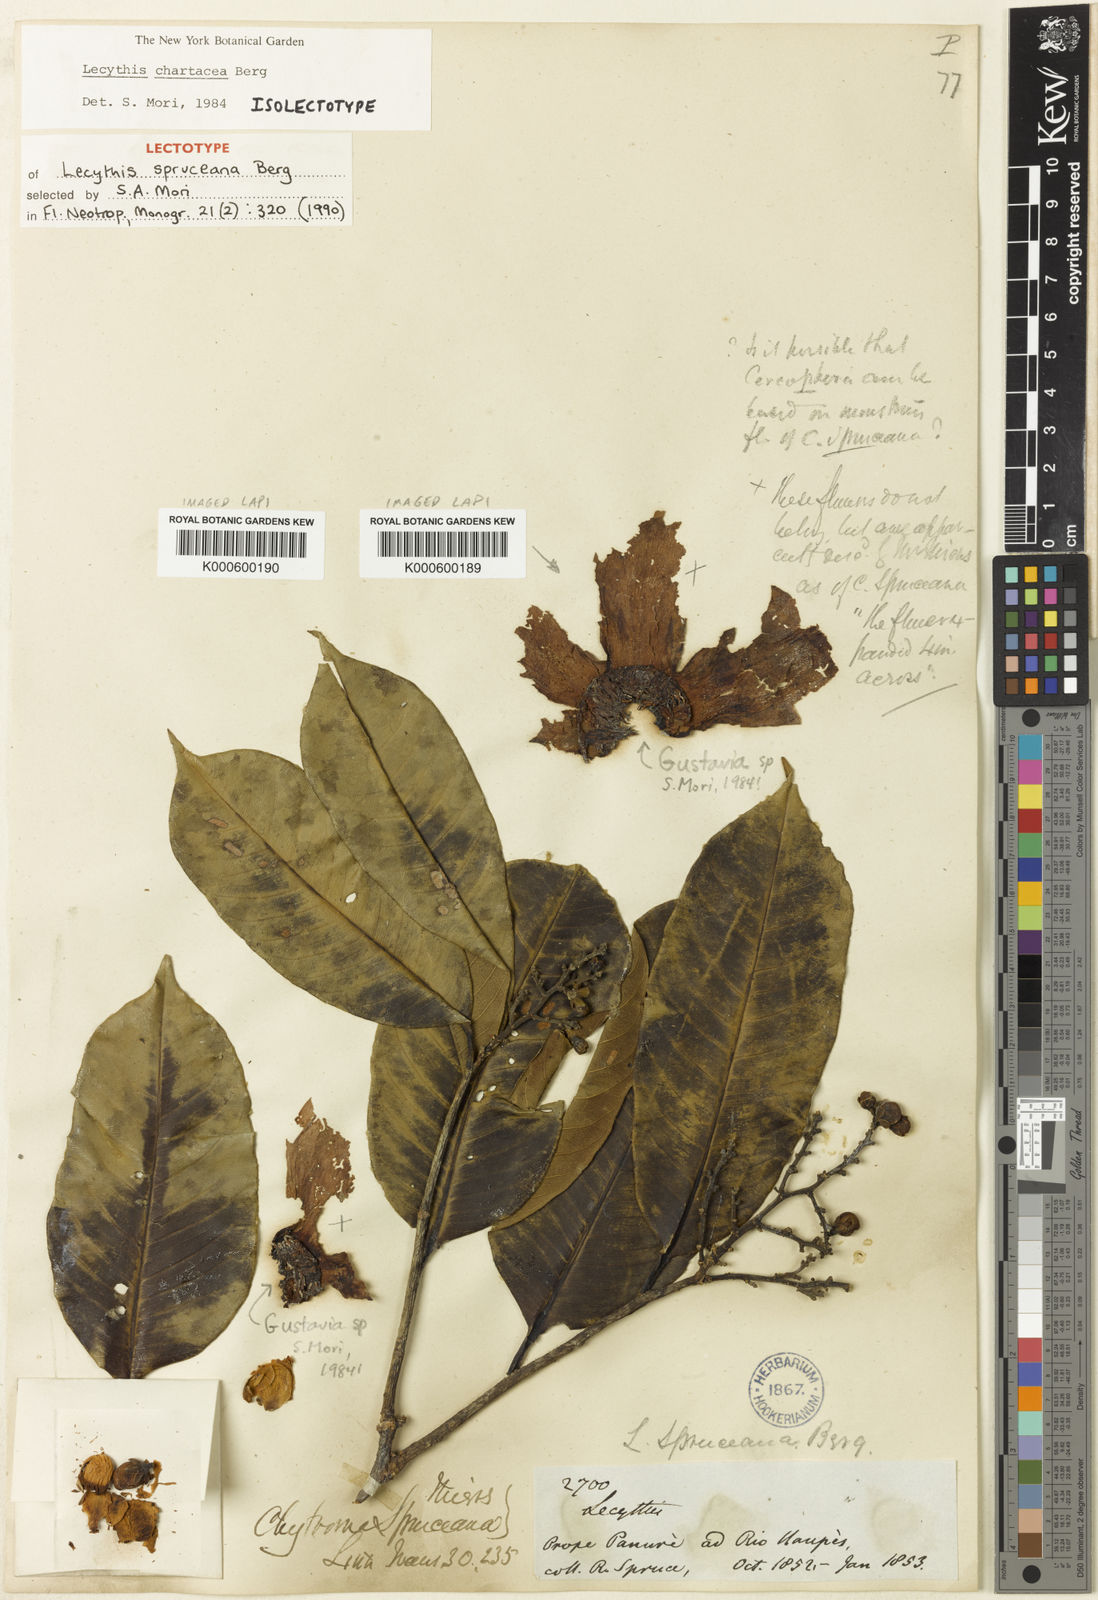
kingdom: Plantae
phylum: Tracheophyta
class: Magnoliopsida
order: Ericales
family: Lecythidaceae
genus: Lecythis
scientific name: Lecythis chartacea
